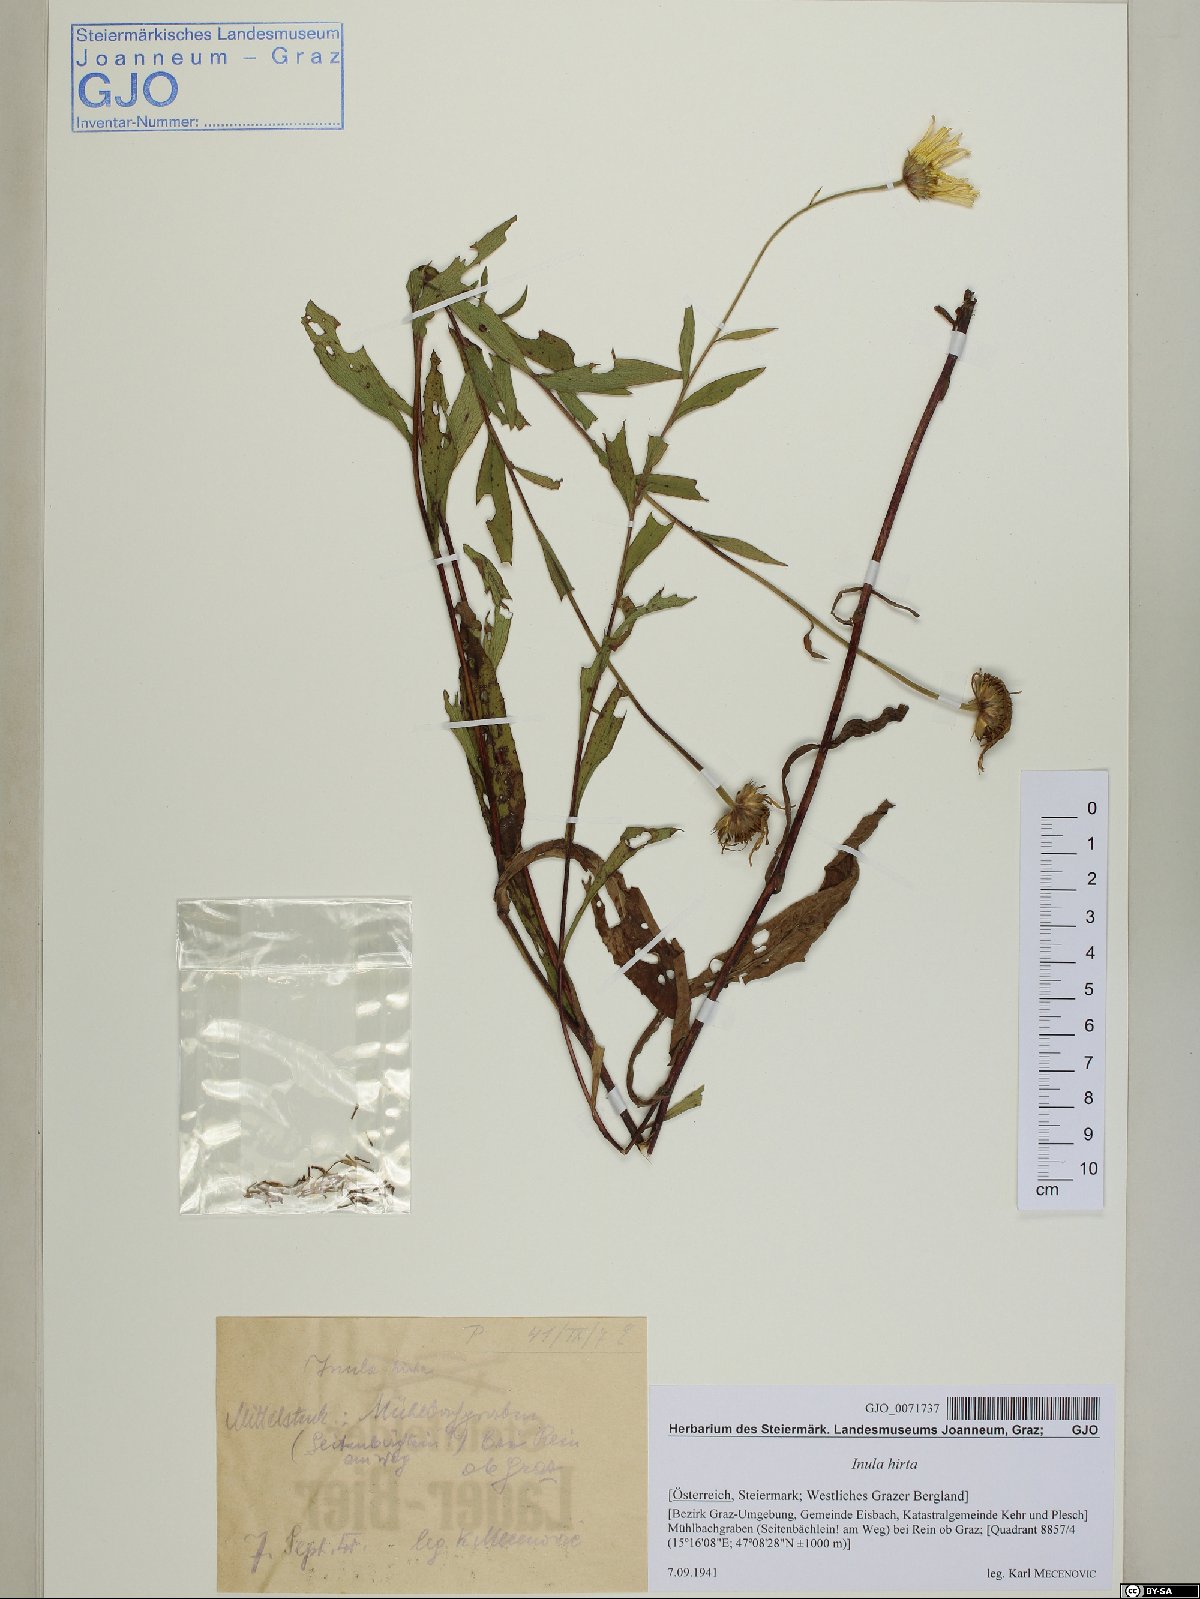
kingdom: Plantae
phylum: Tracheophyta
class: Magnoliopsida
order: Asterales
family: Asteraceae
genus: Buphthalmum
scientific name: Buphthalmum salicifolium
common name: Willow-leaved yellow-oxeye
